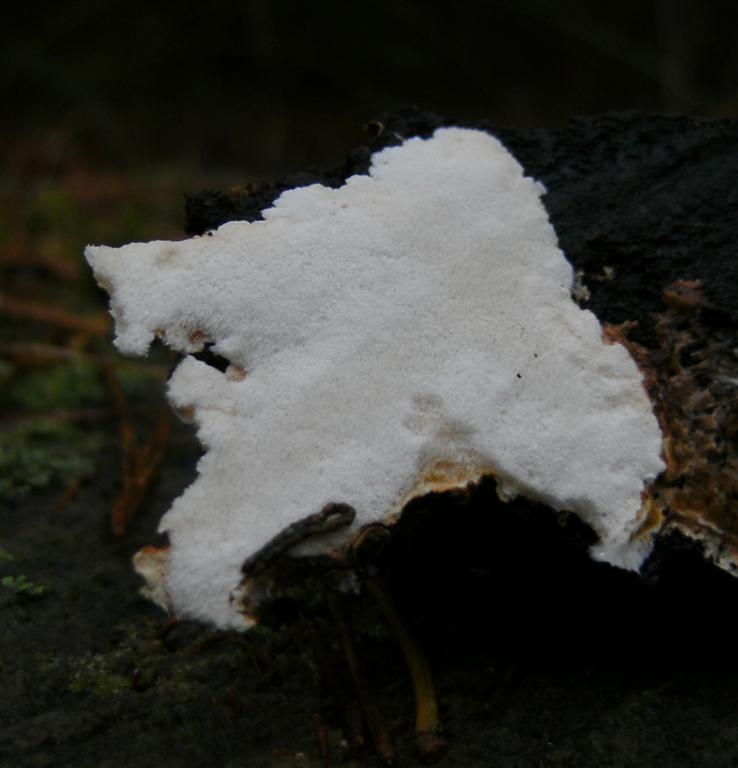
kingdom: Fungi
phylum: Basidiomycota
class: Agaricomycetes
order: Polyporales
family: Dacryobolaceae
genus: Postia
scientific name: Postia sericeomollis
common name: flad kødporesvamp
